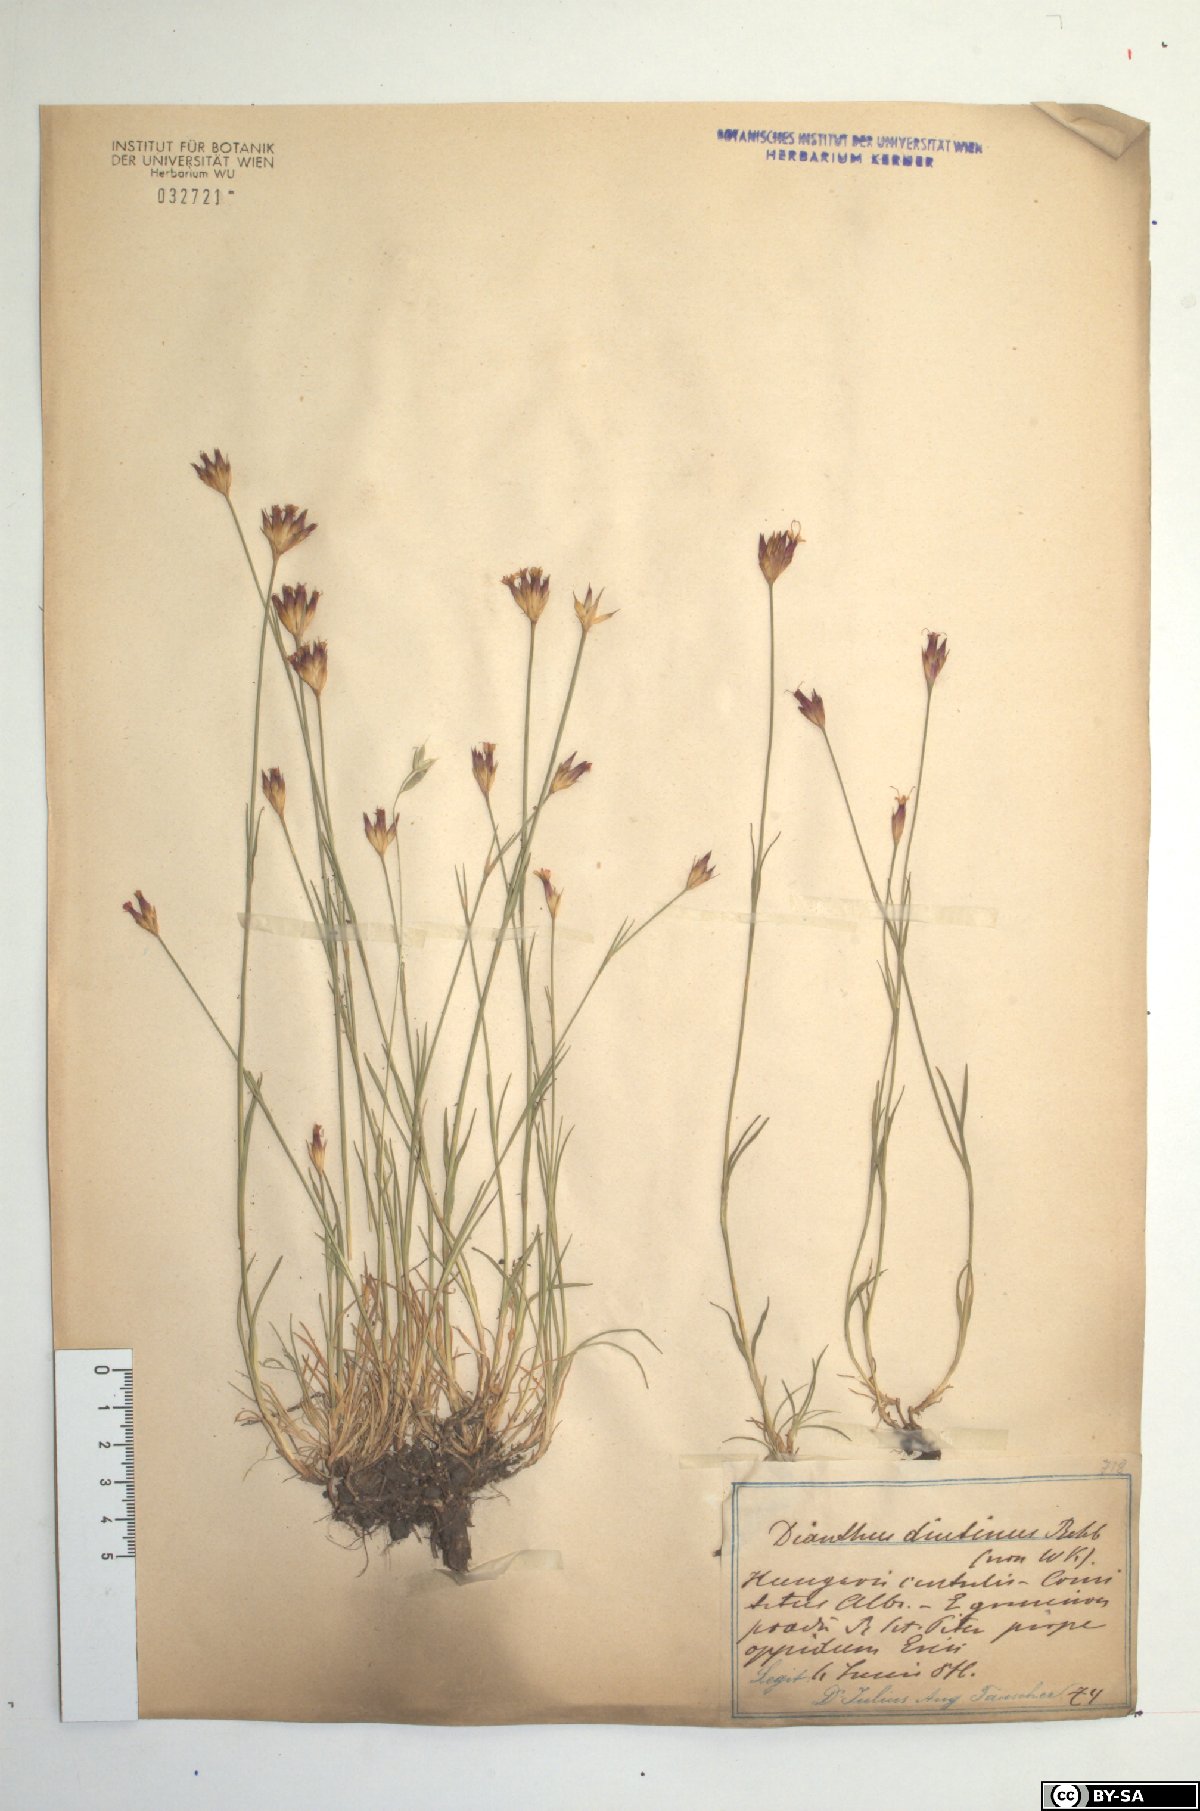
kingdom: Plantae
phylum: Tracheophyta
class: Magnoliopsida
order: Caryophyllales
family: Caryophyllaceae
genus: Dianthus
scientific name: Dianthus pontederae
